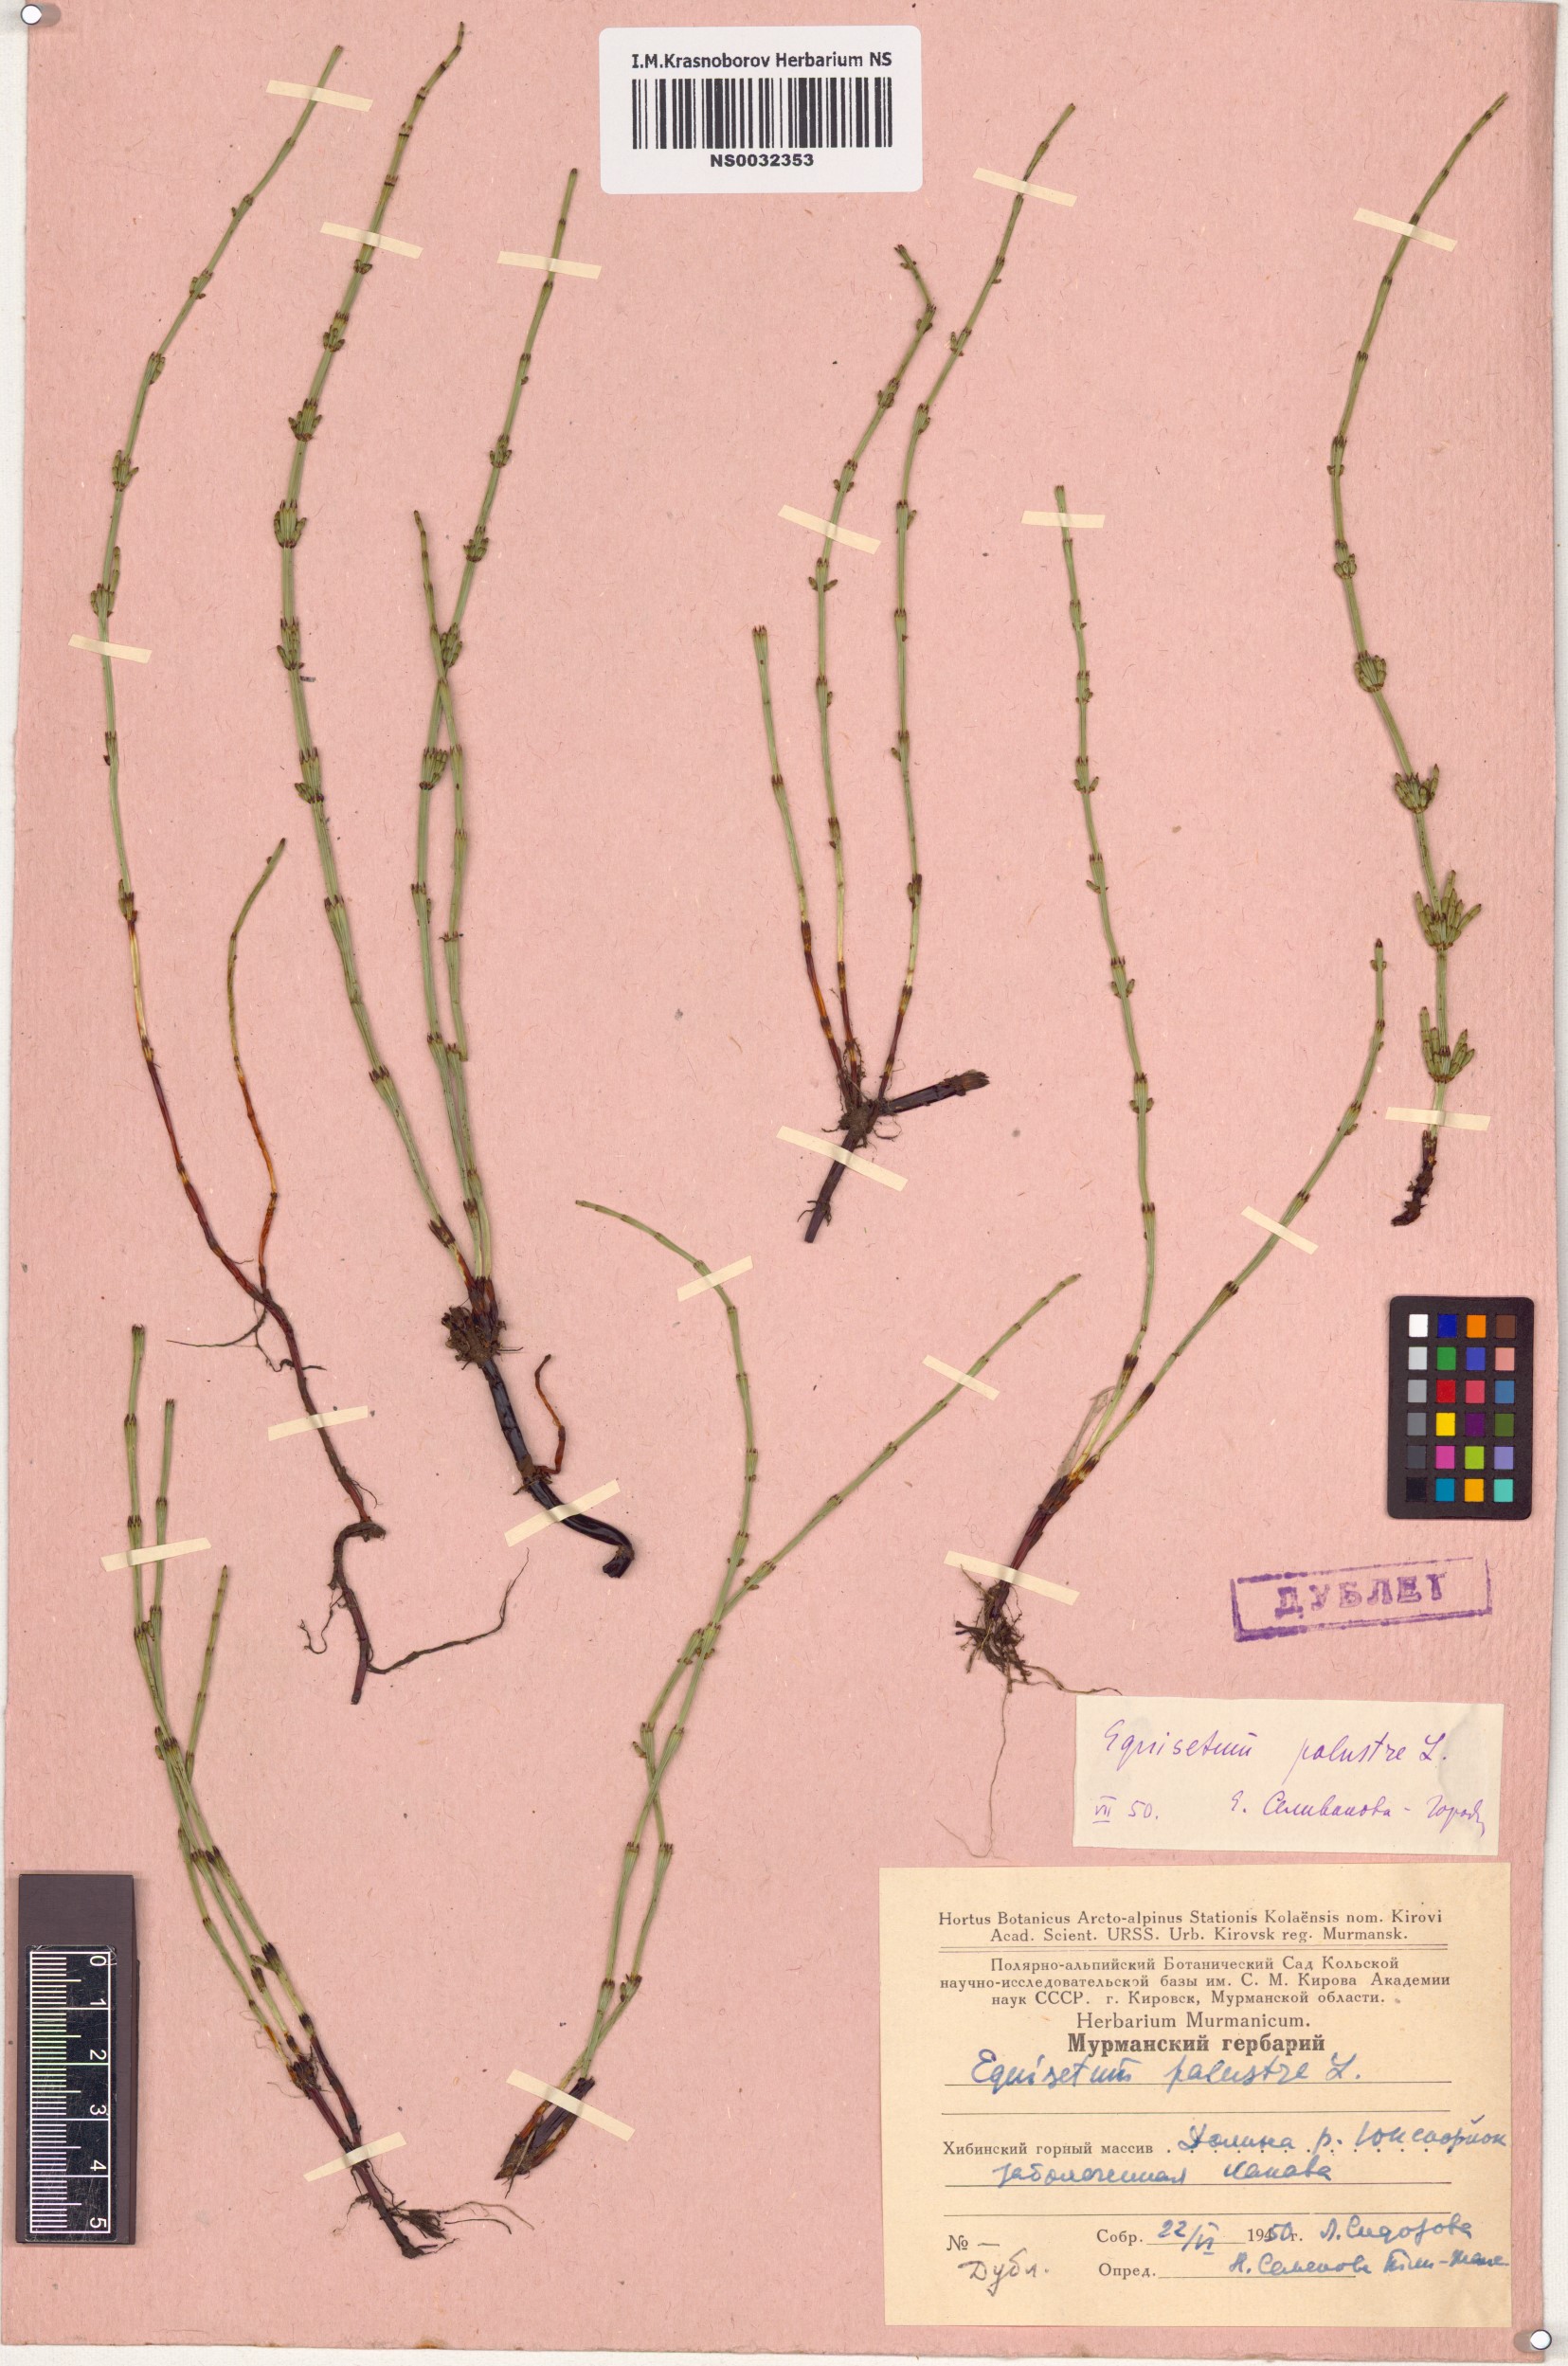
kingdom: Plantae
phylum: Tracheophyta
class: Polypodiopsida
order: Equisetales
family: Equisetaceae
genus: Equisetum
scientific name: Equisetum palustre
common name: Marsh horsetail
